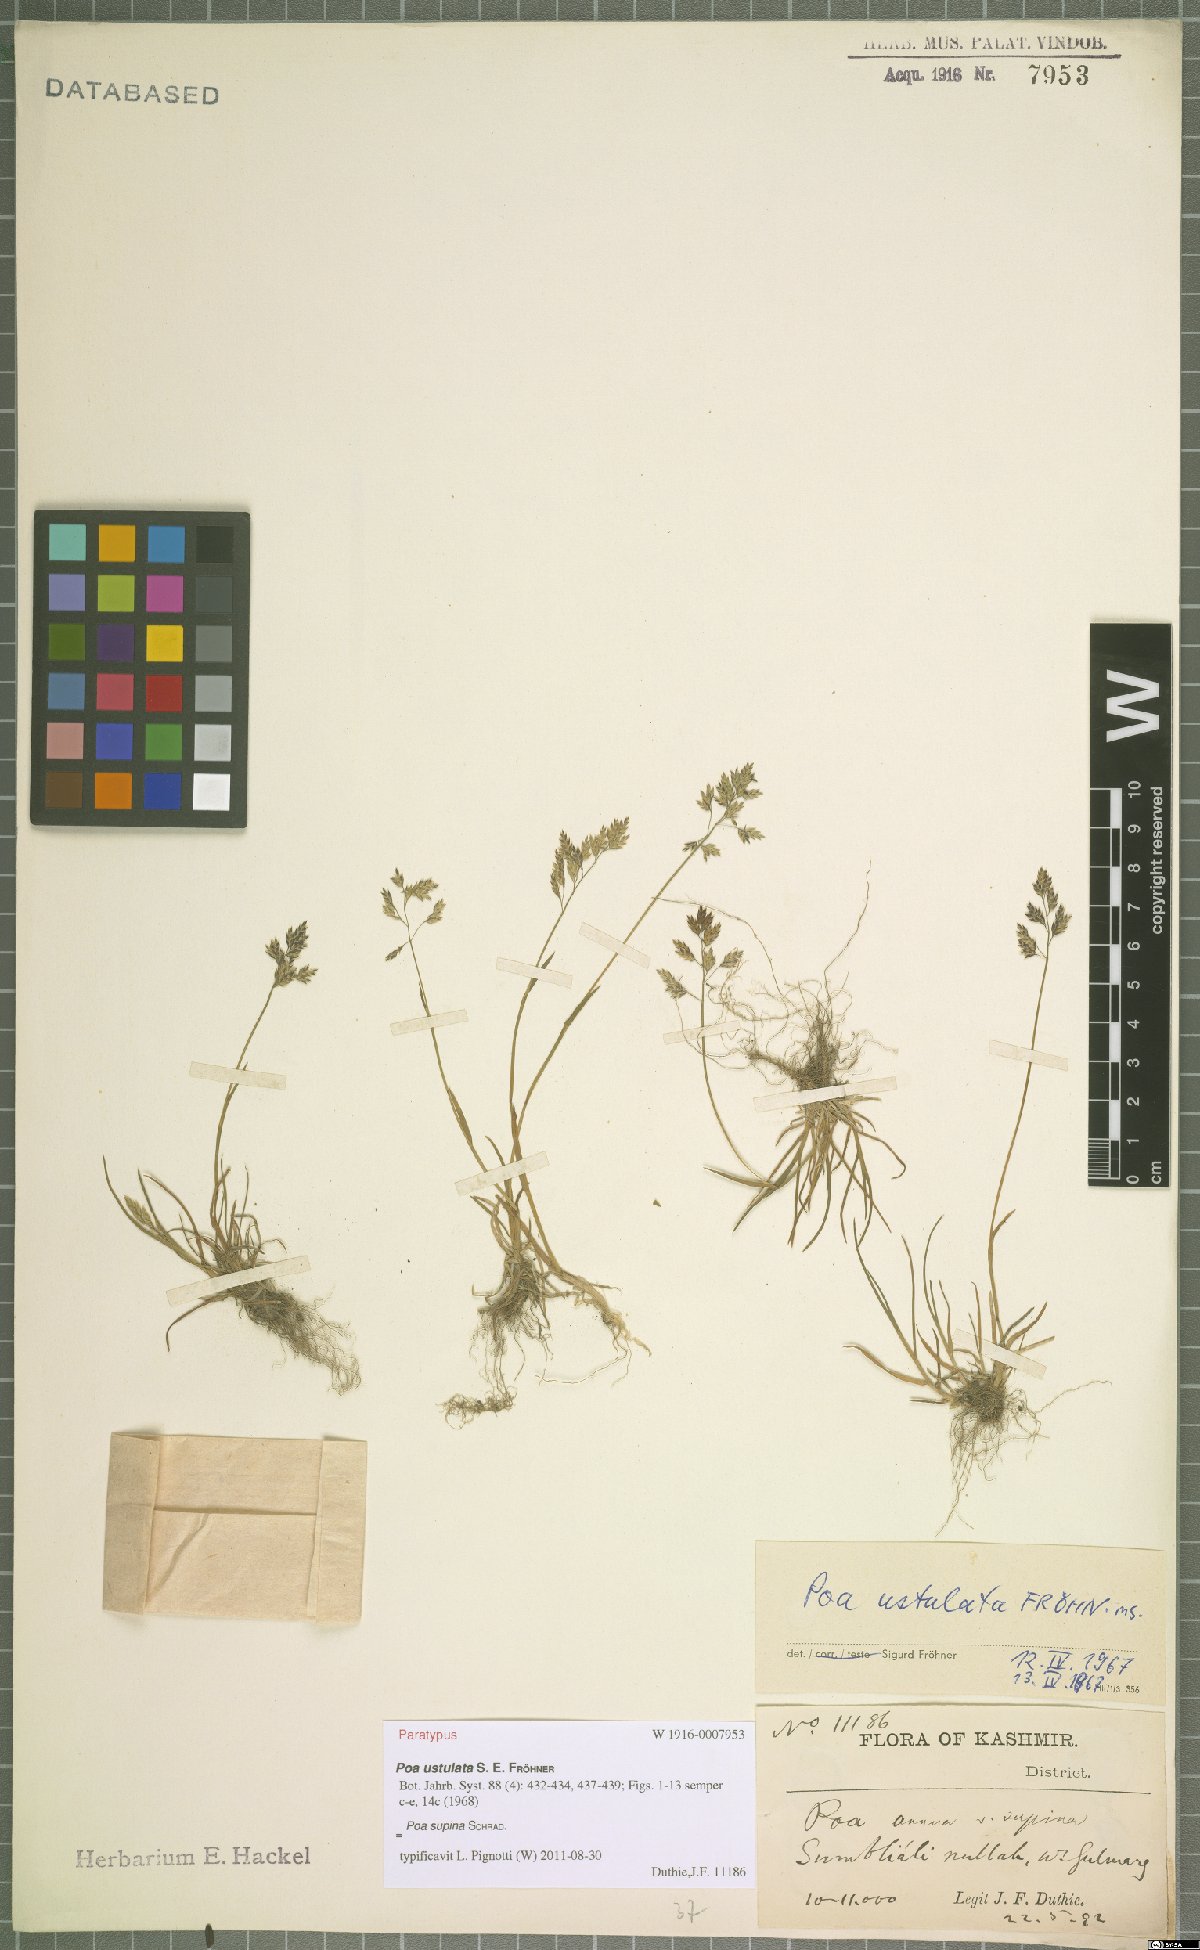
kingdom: Plantae
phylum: Tracheophyta
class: Liliopsida
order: Poales
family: Poaceae
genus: Poa
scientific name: Poa supina
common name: Supina bluegrass
